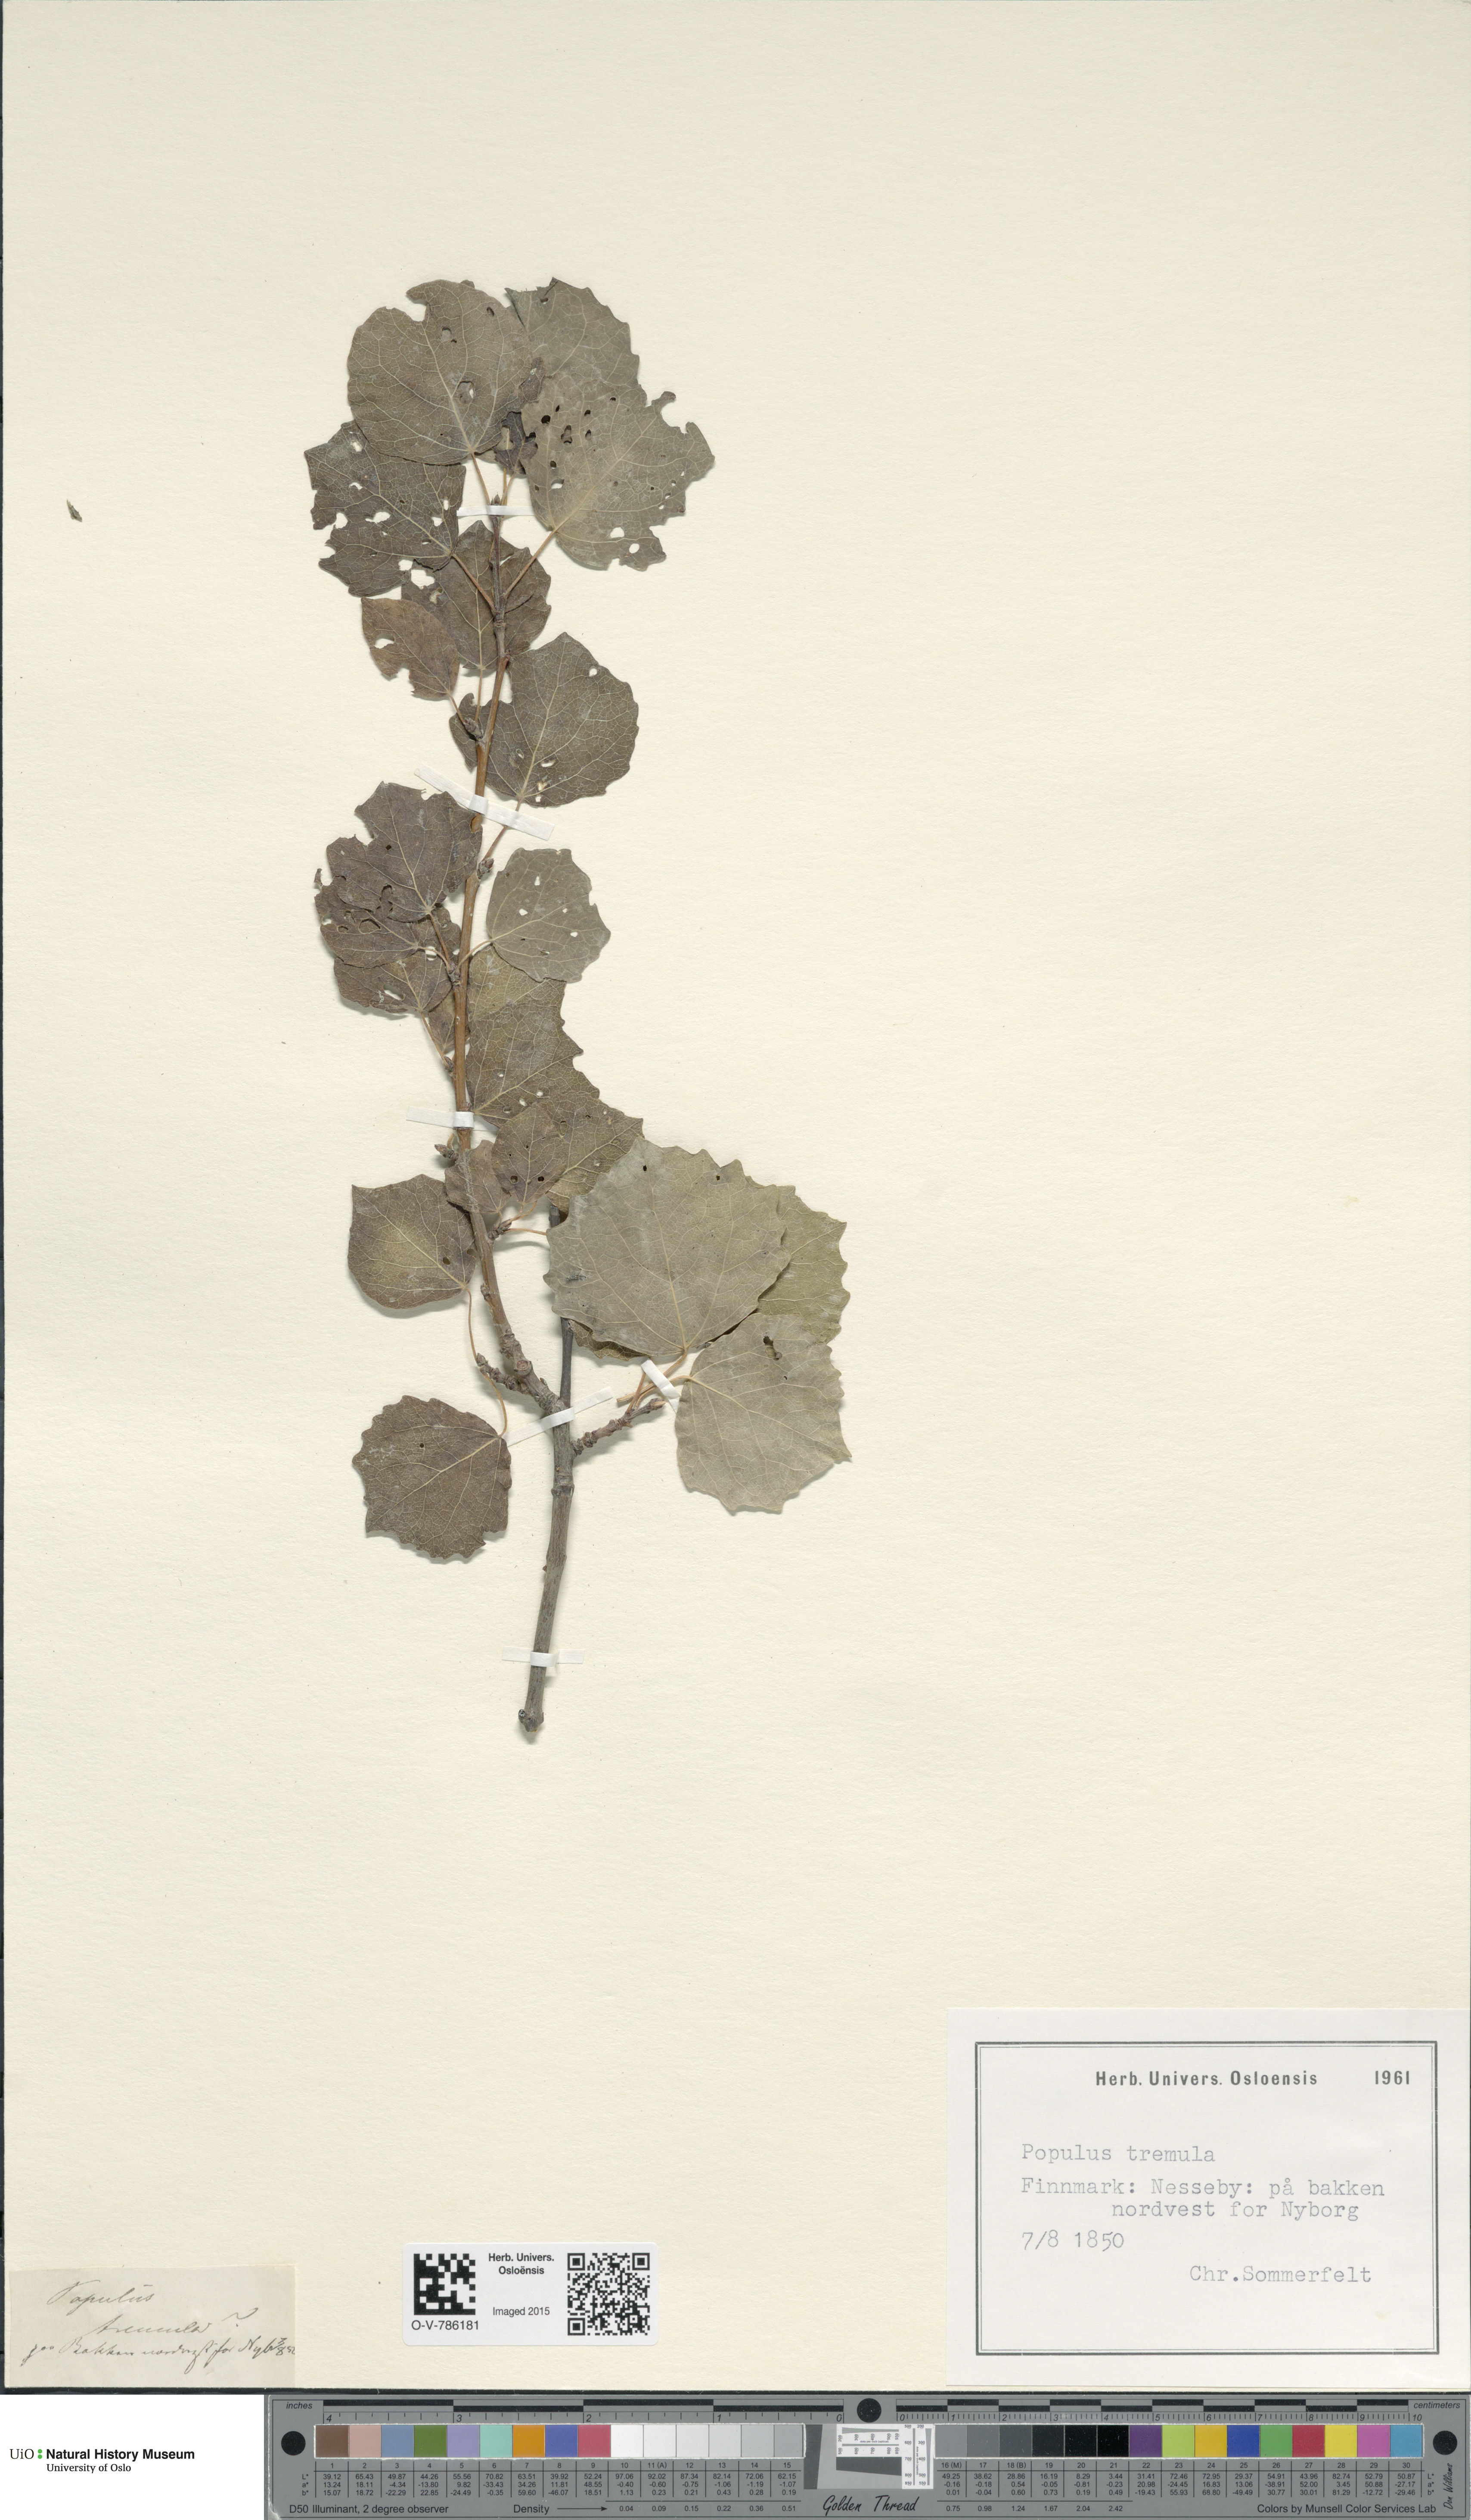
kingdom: Plantae
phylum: Tracheophyta
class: Magnoliopsida
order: Malpighiales
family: Salicaceae
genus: Populus
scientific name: Populus tremula
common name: European aspen
